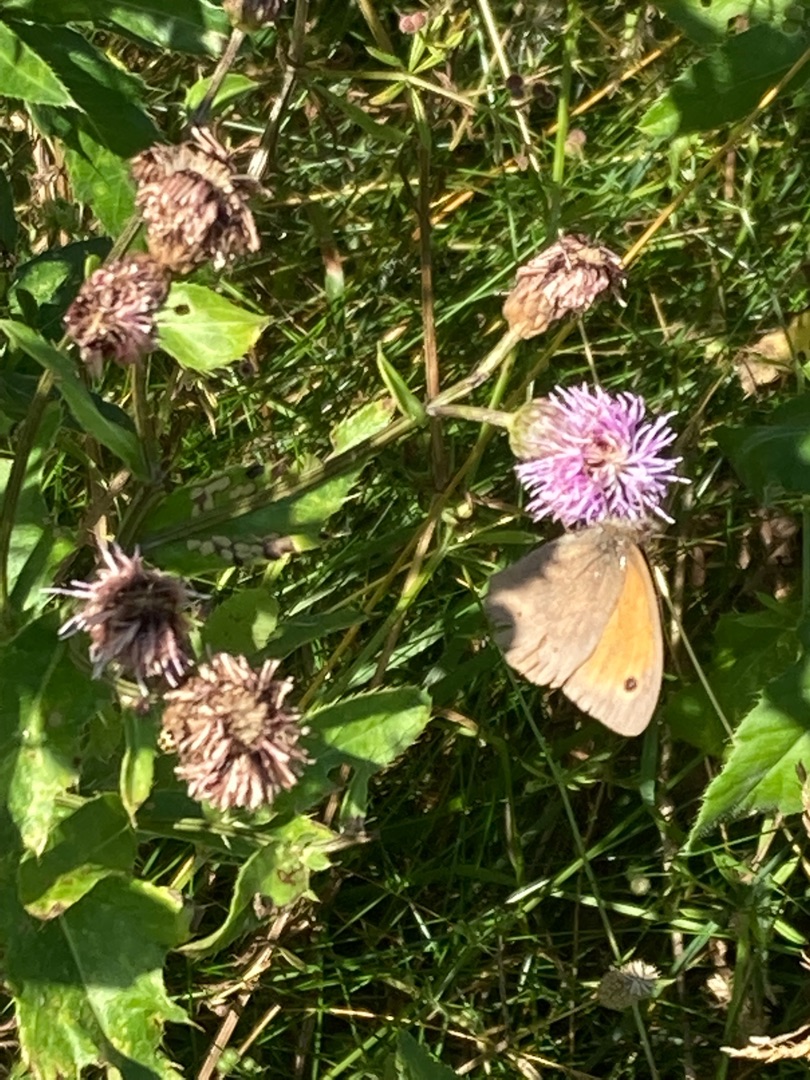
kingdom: Animalia
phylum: Arthropoda
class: Insecta
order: Lepidoptera
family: Nymphalidae
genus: Maniola
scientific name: Maniola jurtina
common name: Græsrandøje
